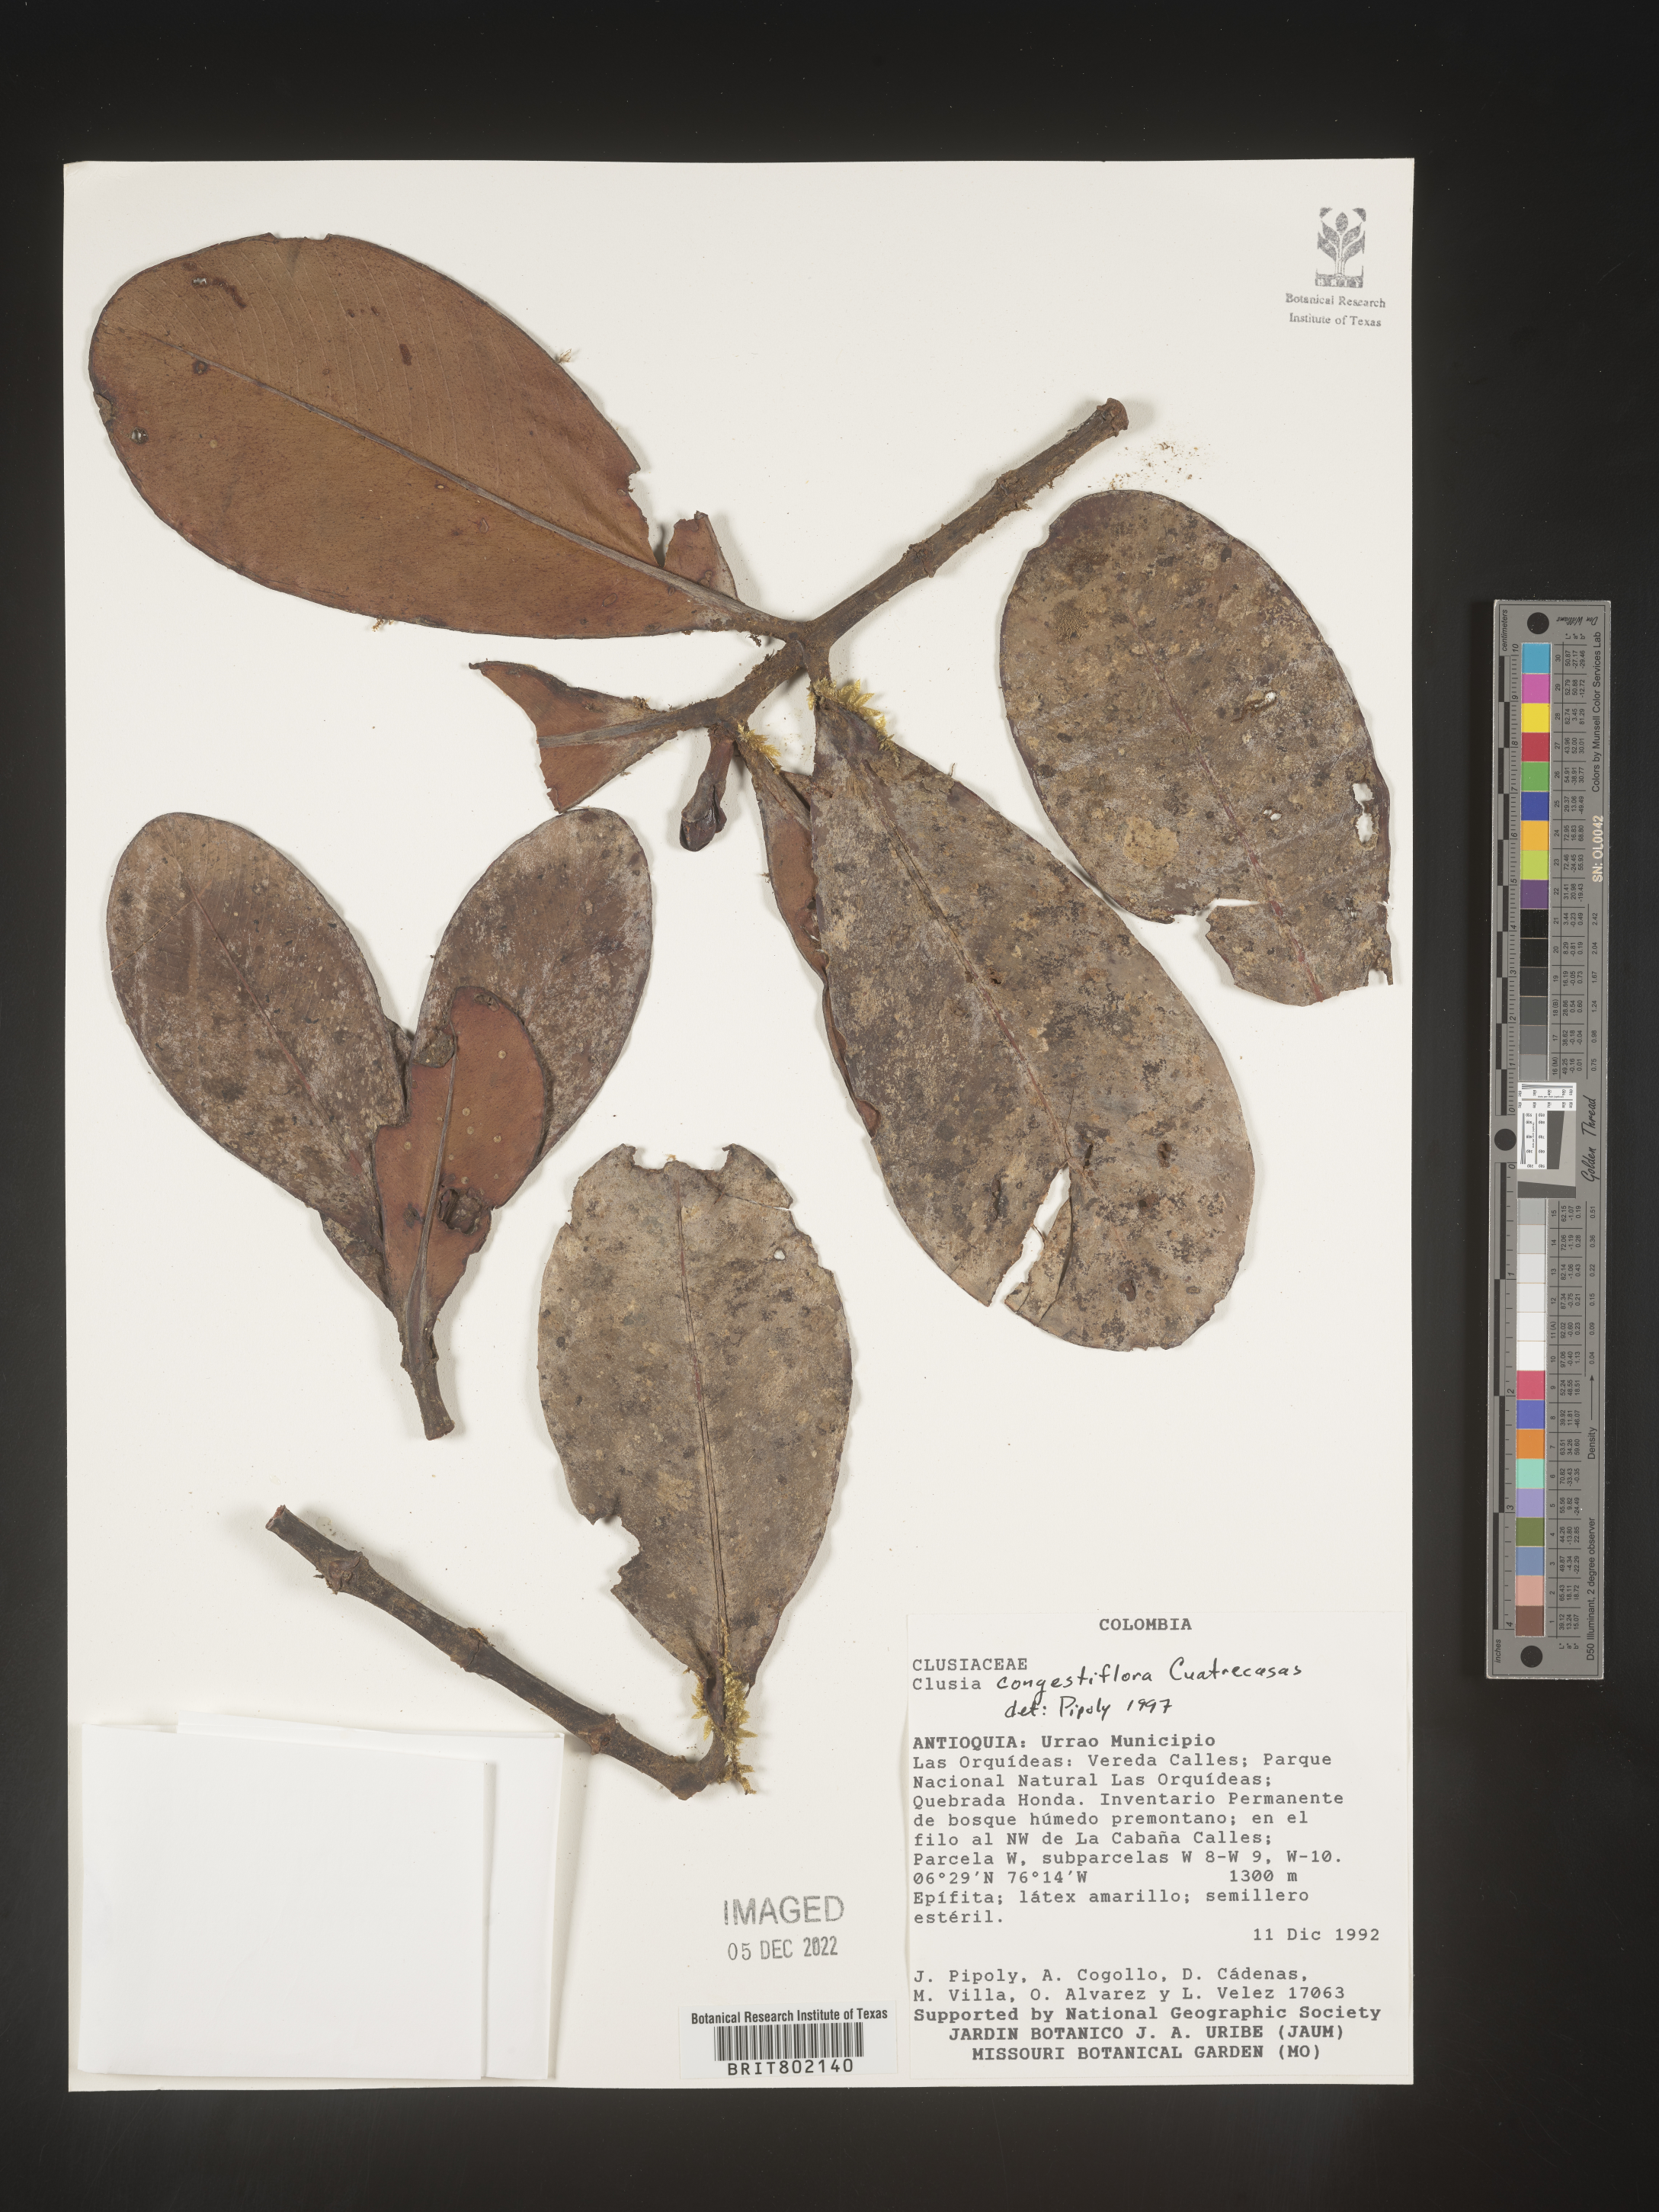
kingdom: Plantae
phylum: Tracheophyta
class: Magnoliopsida
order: Malpighiales
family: Clusiaceae
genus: Clusia
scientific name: Clusia
